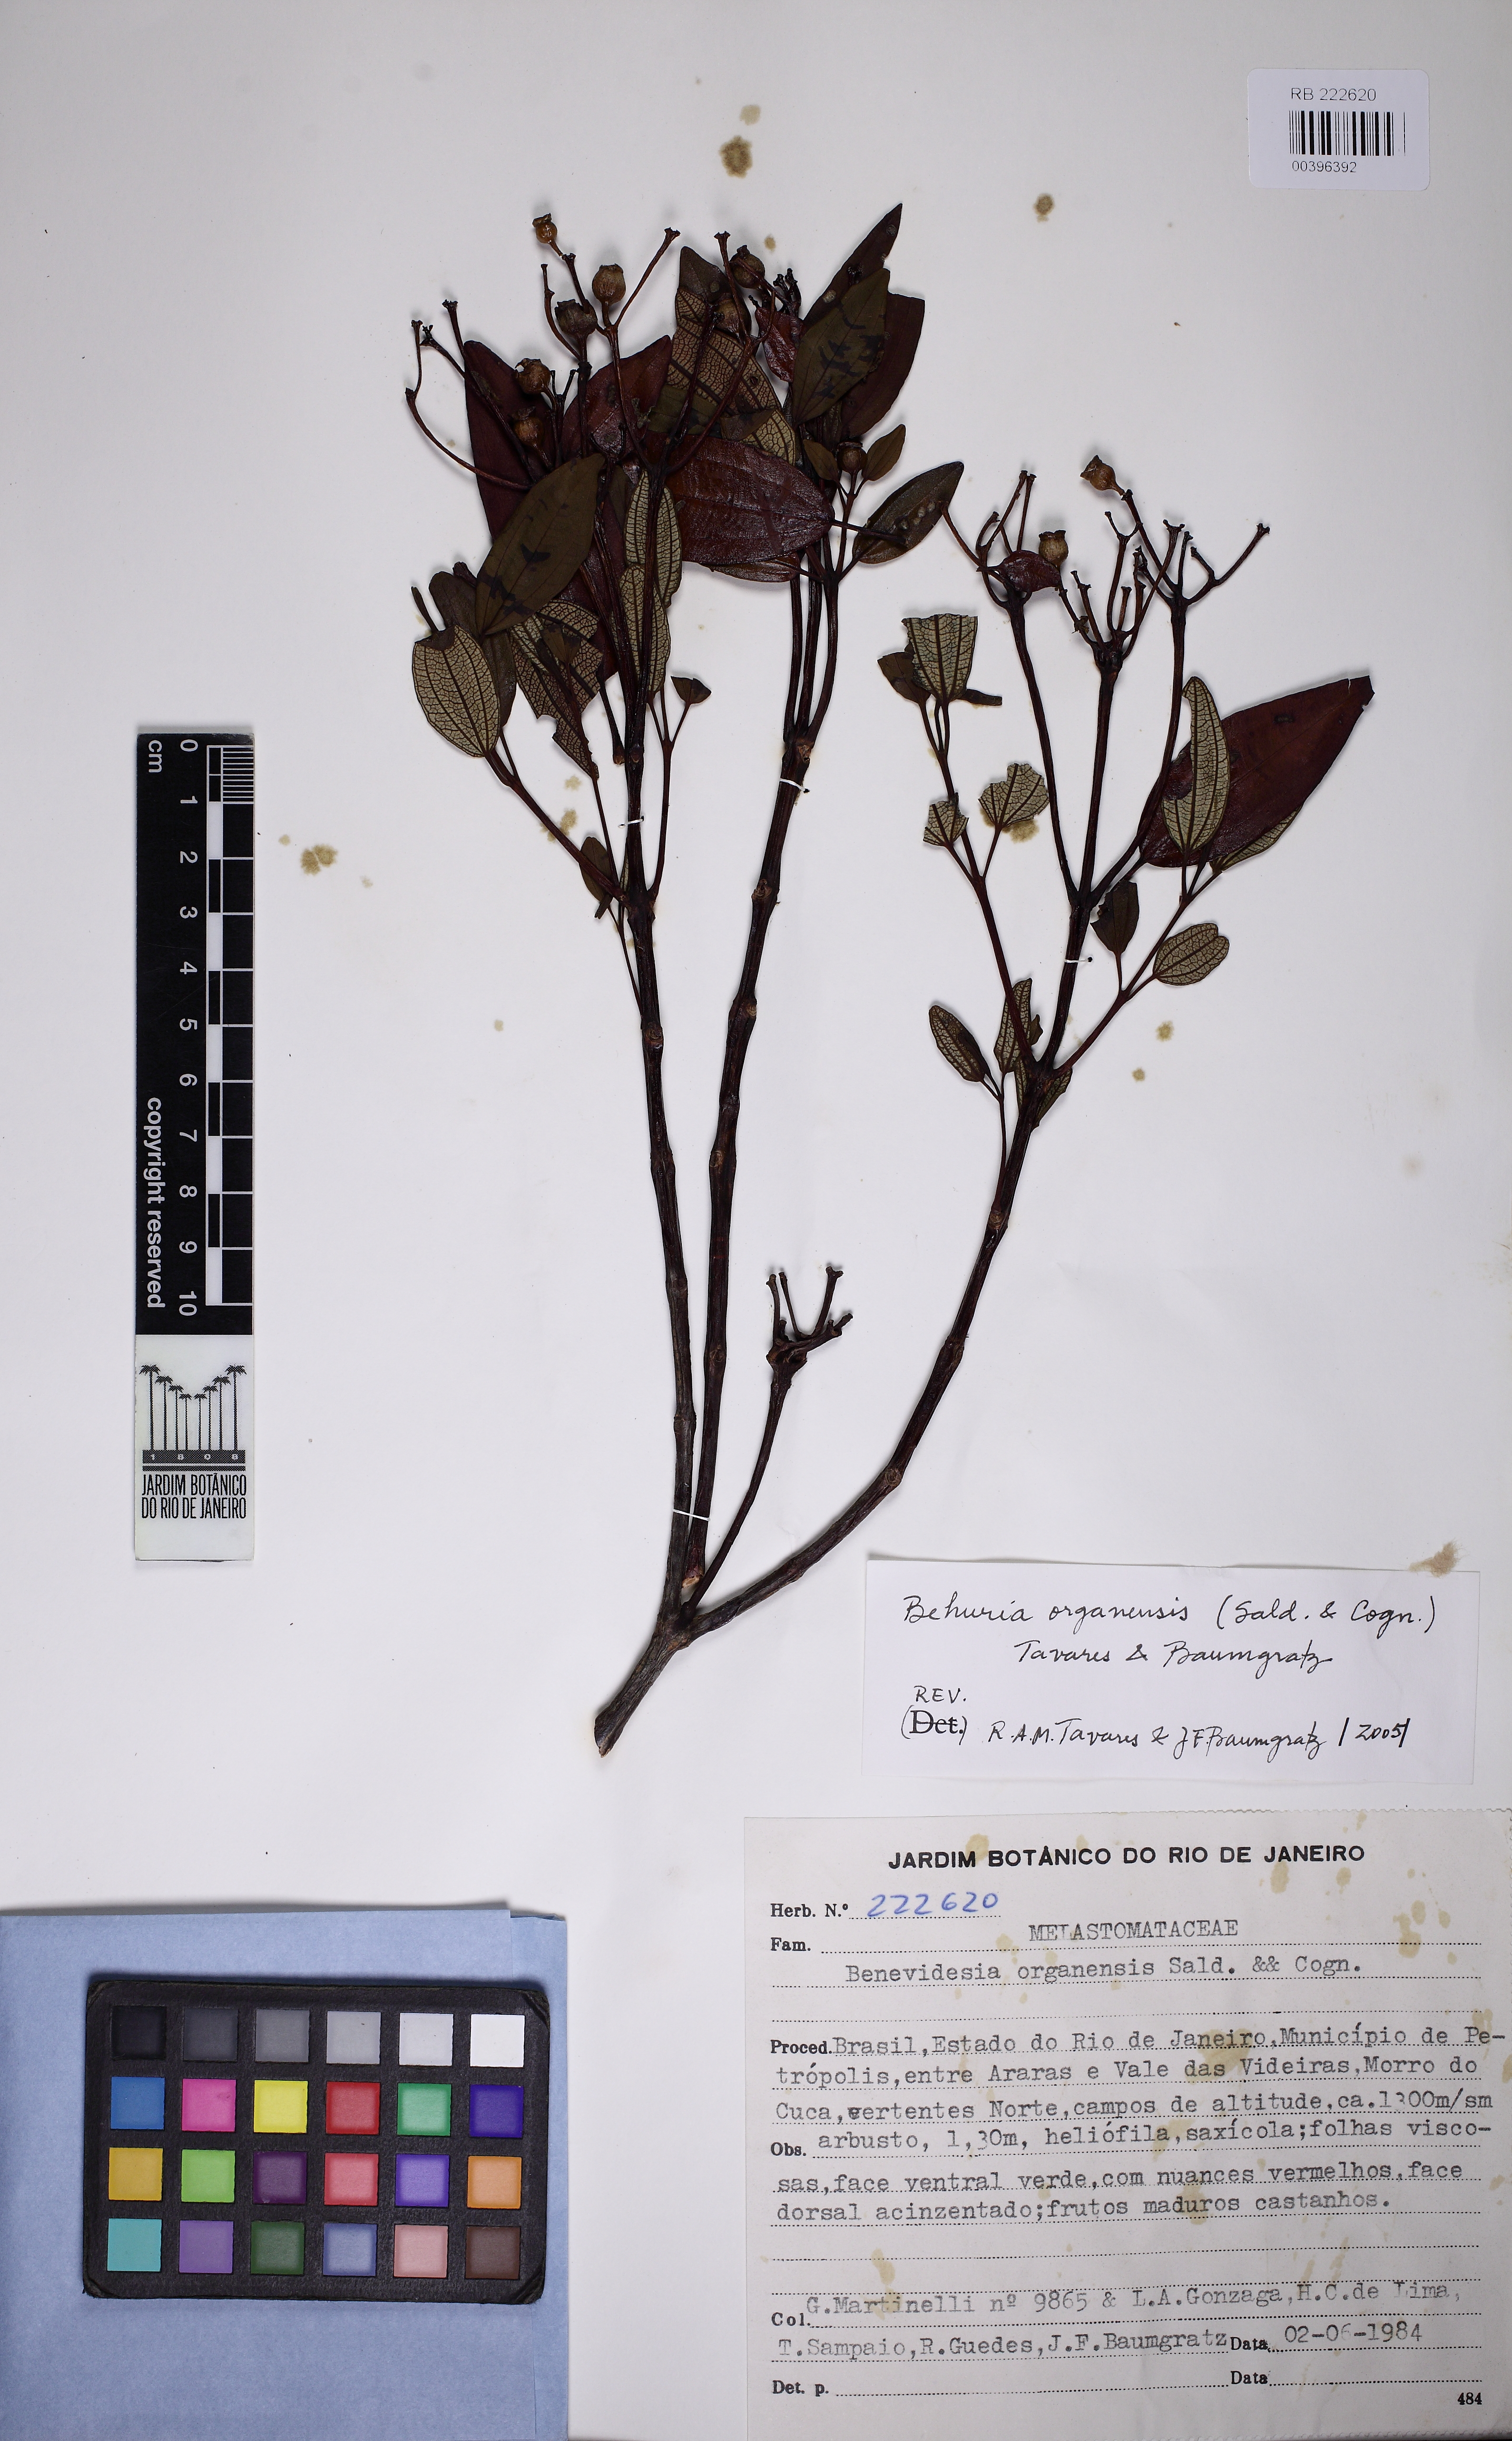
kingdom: Plantae
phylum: Tracheophyta
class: Magnoliopsida
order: Myrtales
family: Melastomataceae
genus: Huberia
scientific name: Huberia organensis
